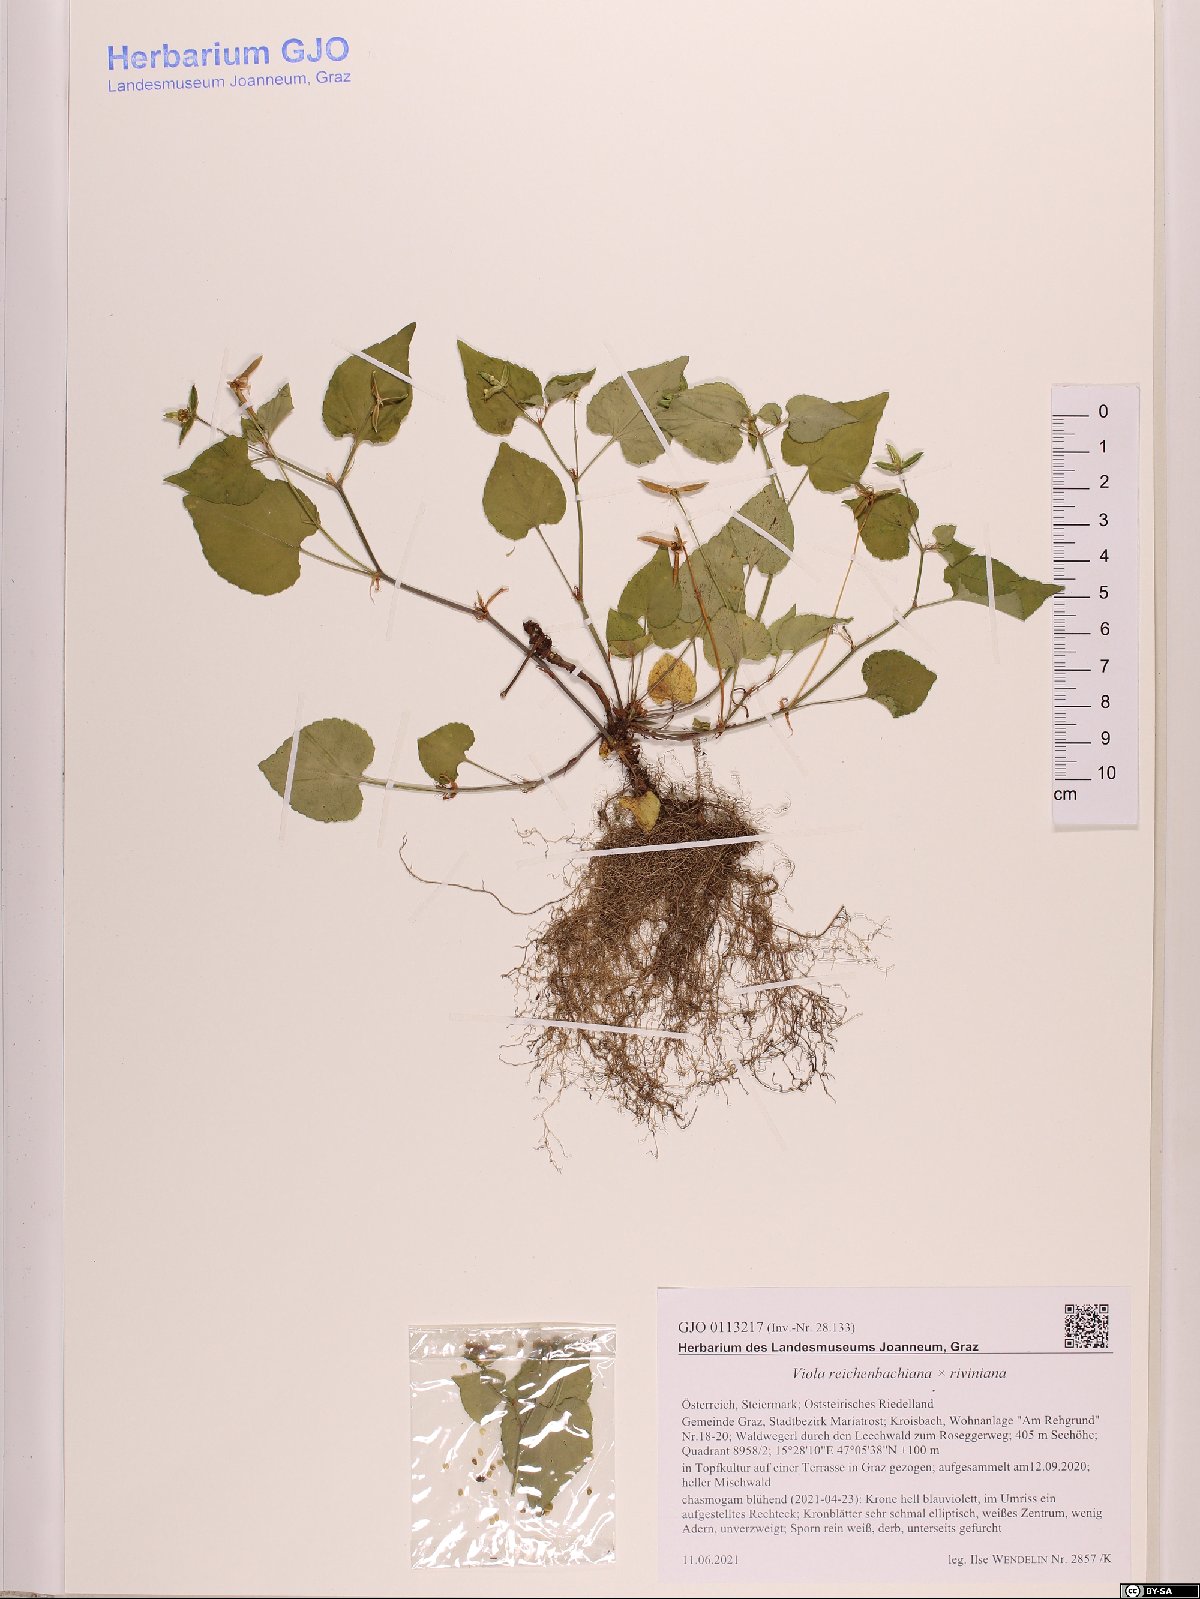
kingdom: Plantae
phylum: Tracheophyta
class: Magnoliopsida
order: Malpighiales
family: Violaceae
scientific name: Violaceae
